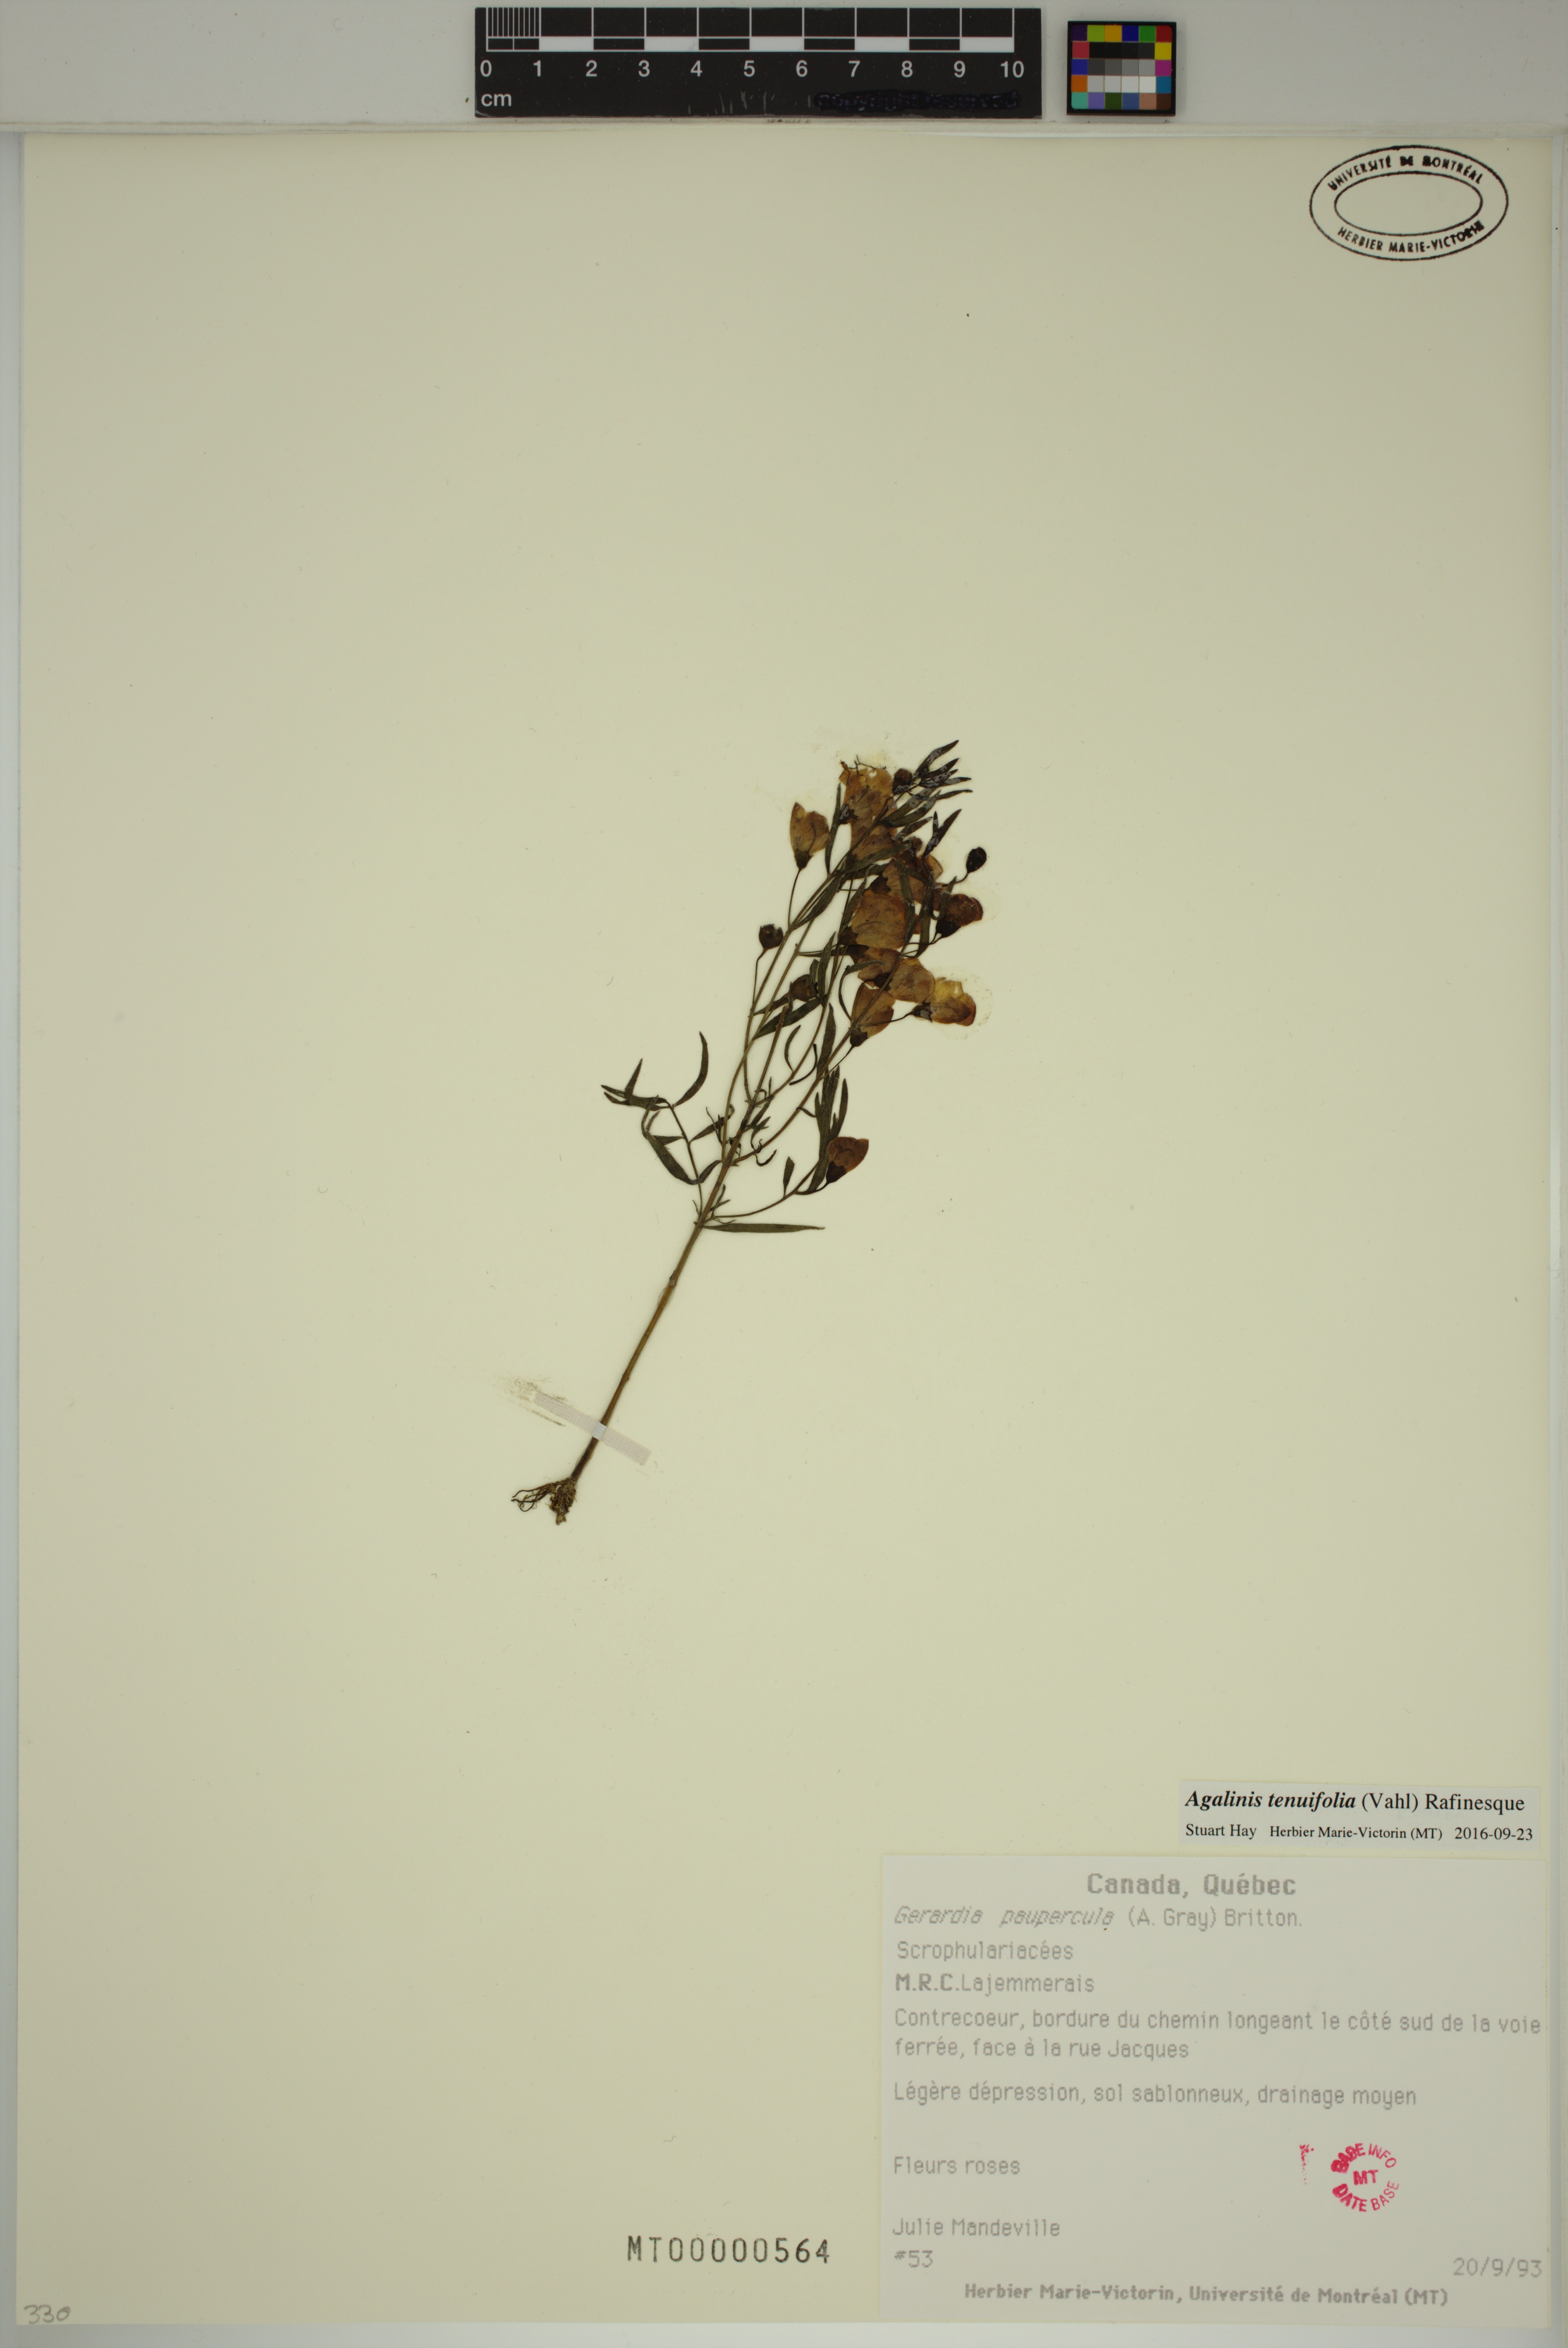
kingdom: Plantae
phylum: Tracheophyta
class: Magnoliopsida
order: Lamiales
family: Orobanchaceae
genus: Agalinis
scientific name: Agalinis tenuifolia
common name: Slender agalinis
